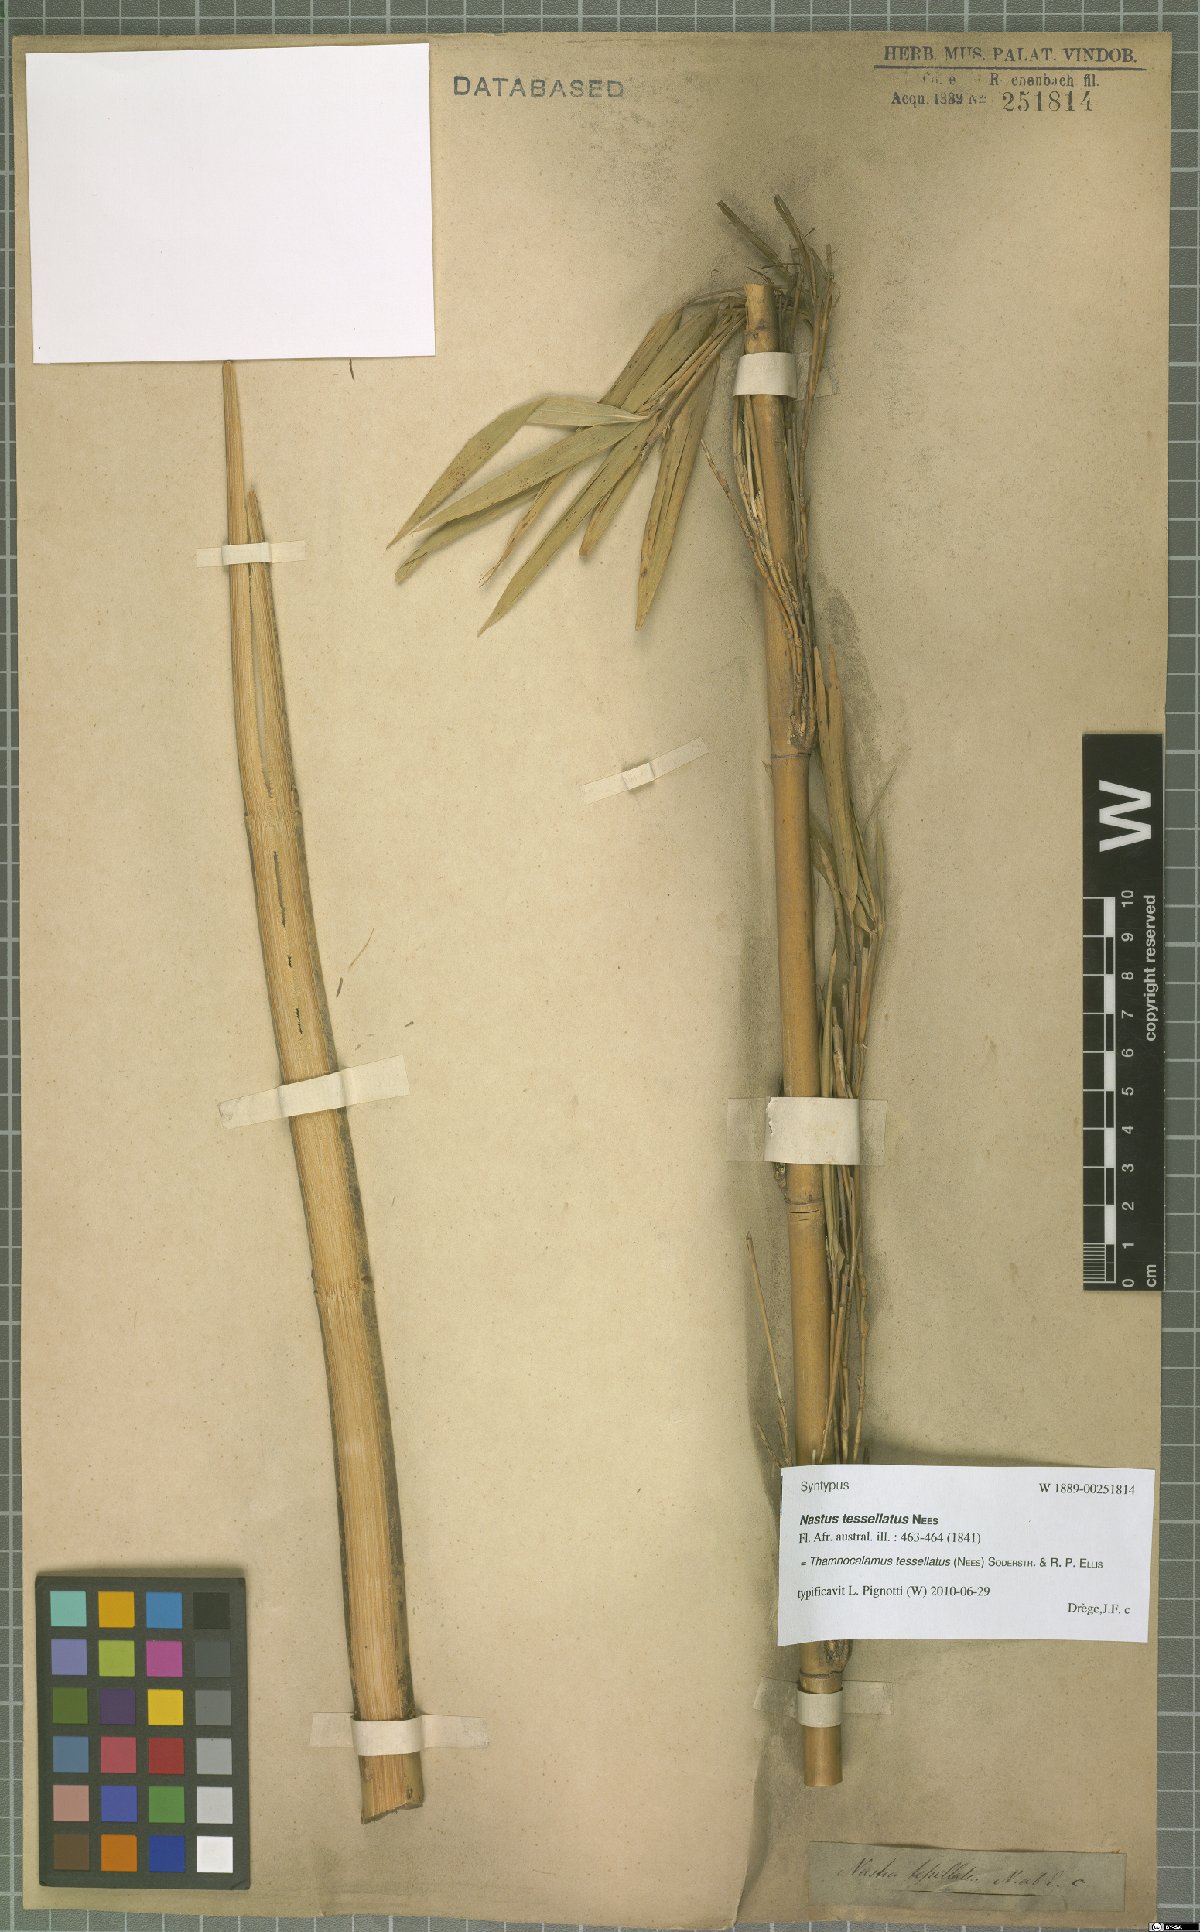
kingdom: Plantae
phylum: Tracheophyta
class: Liliopsida
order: Poales
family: Poaceae
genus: Bergbambos
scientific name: Bergbambos tessellata
